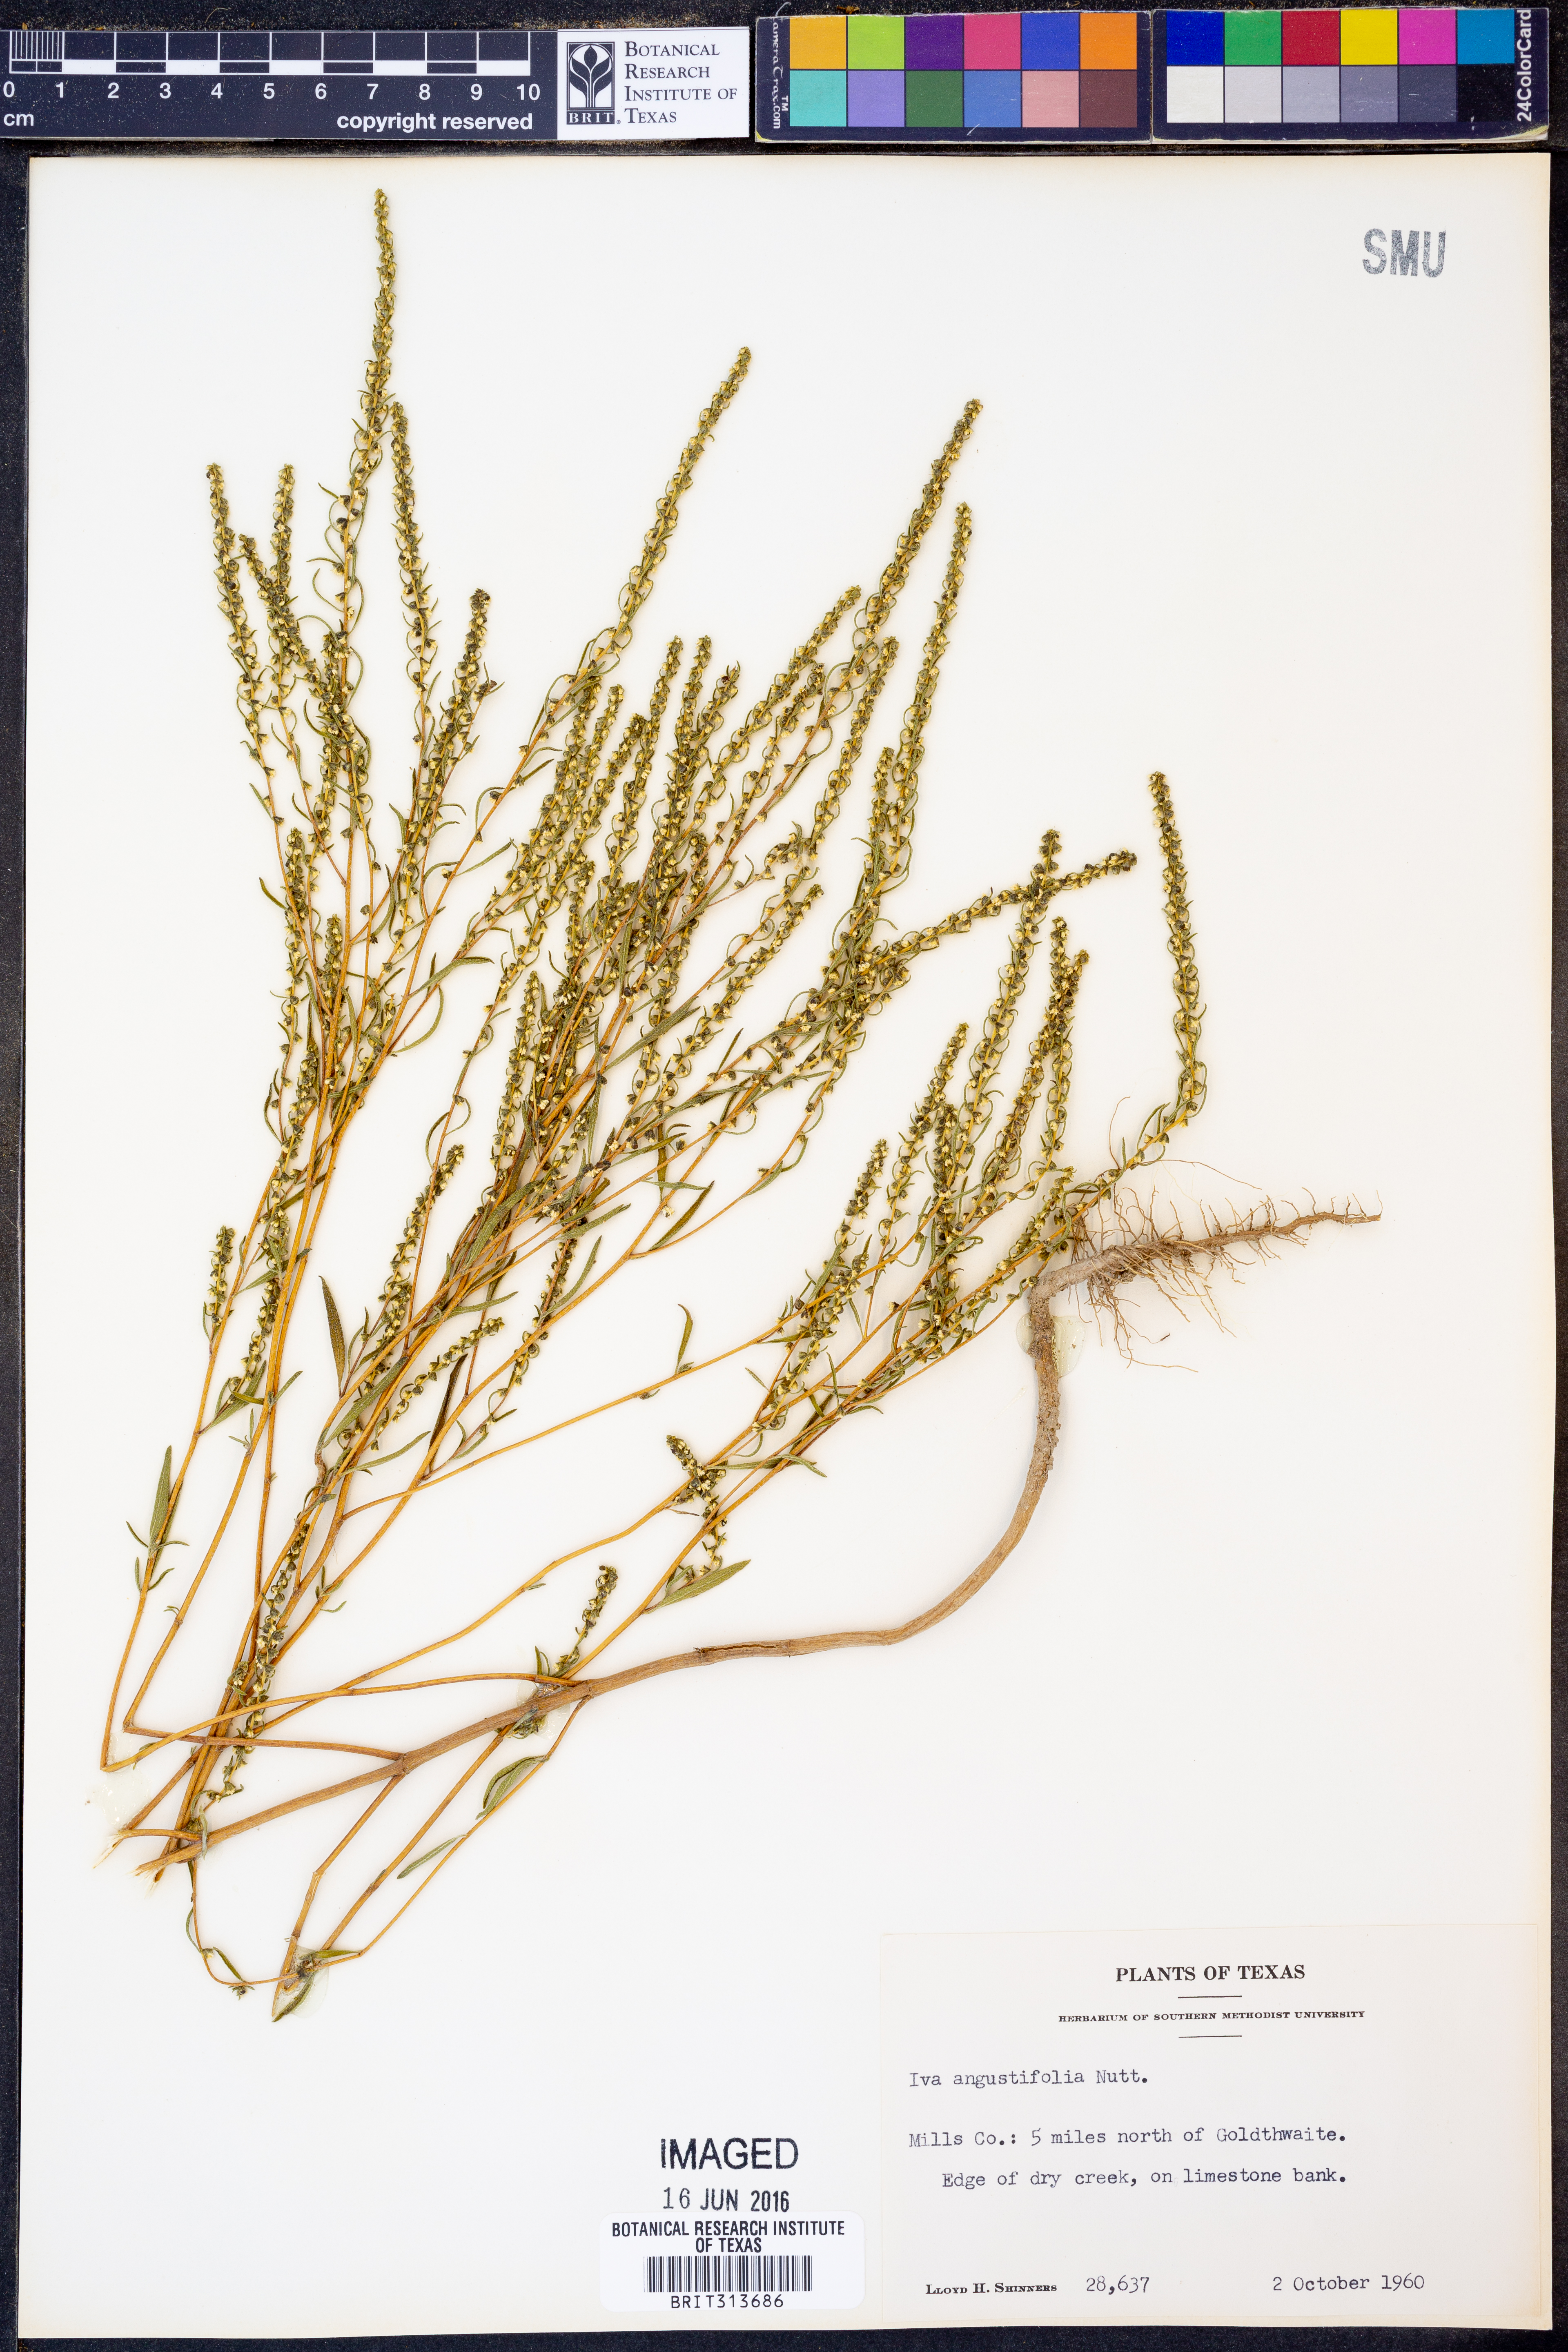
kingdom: Plantae
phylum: Tracheophyta
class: Magnoliopsida
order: Asterales
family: Asteraceae
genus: Iva
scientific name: Iva asperifolia
